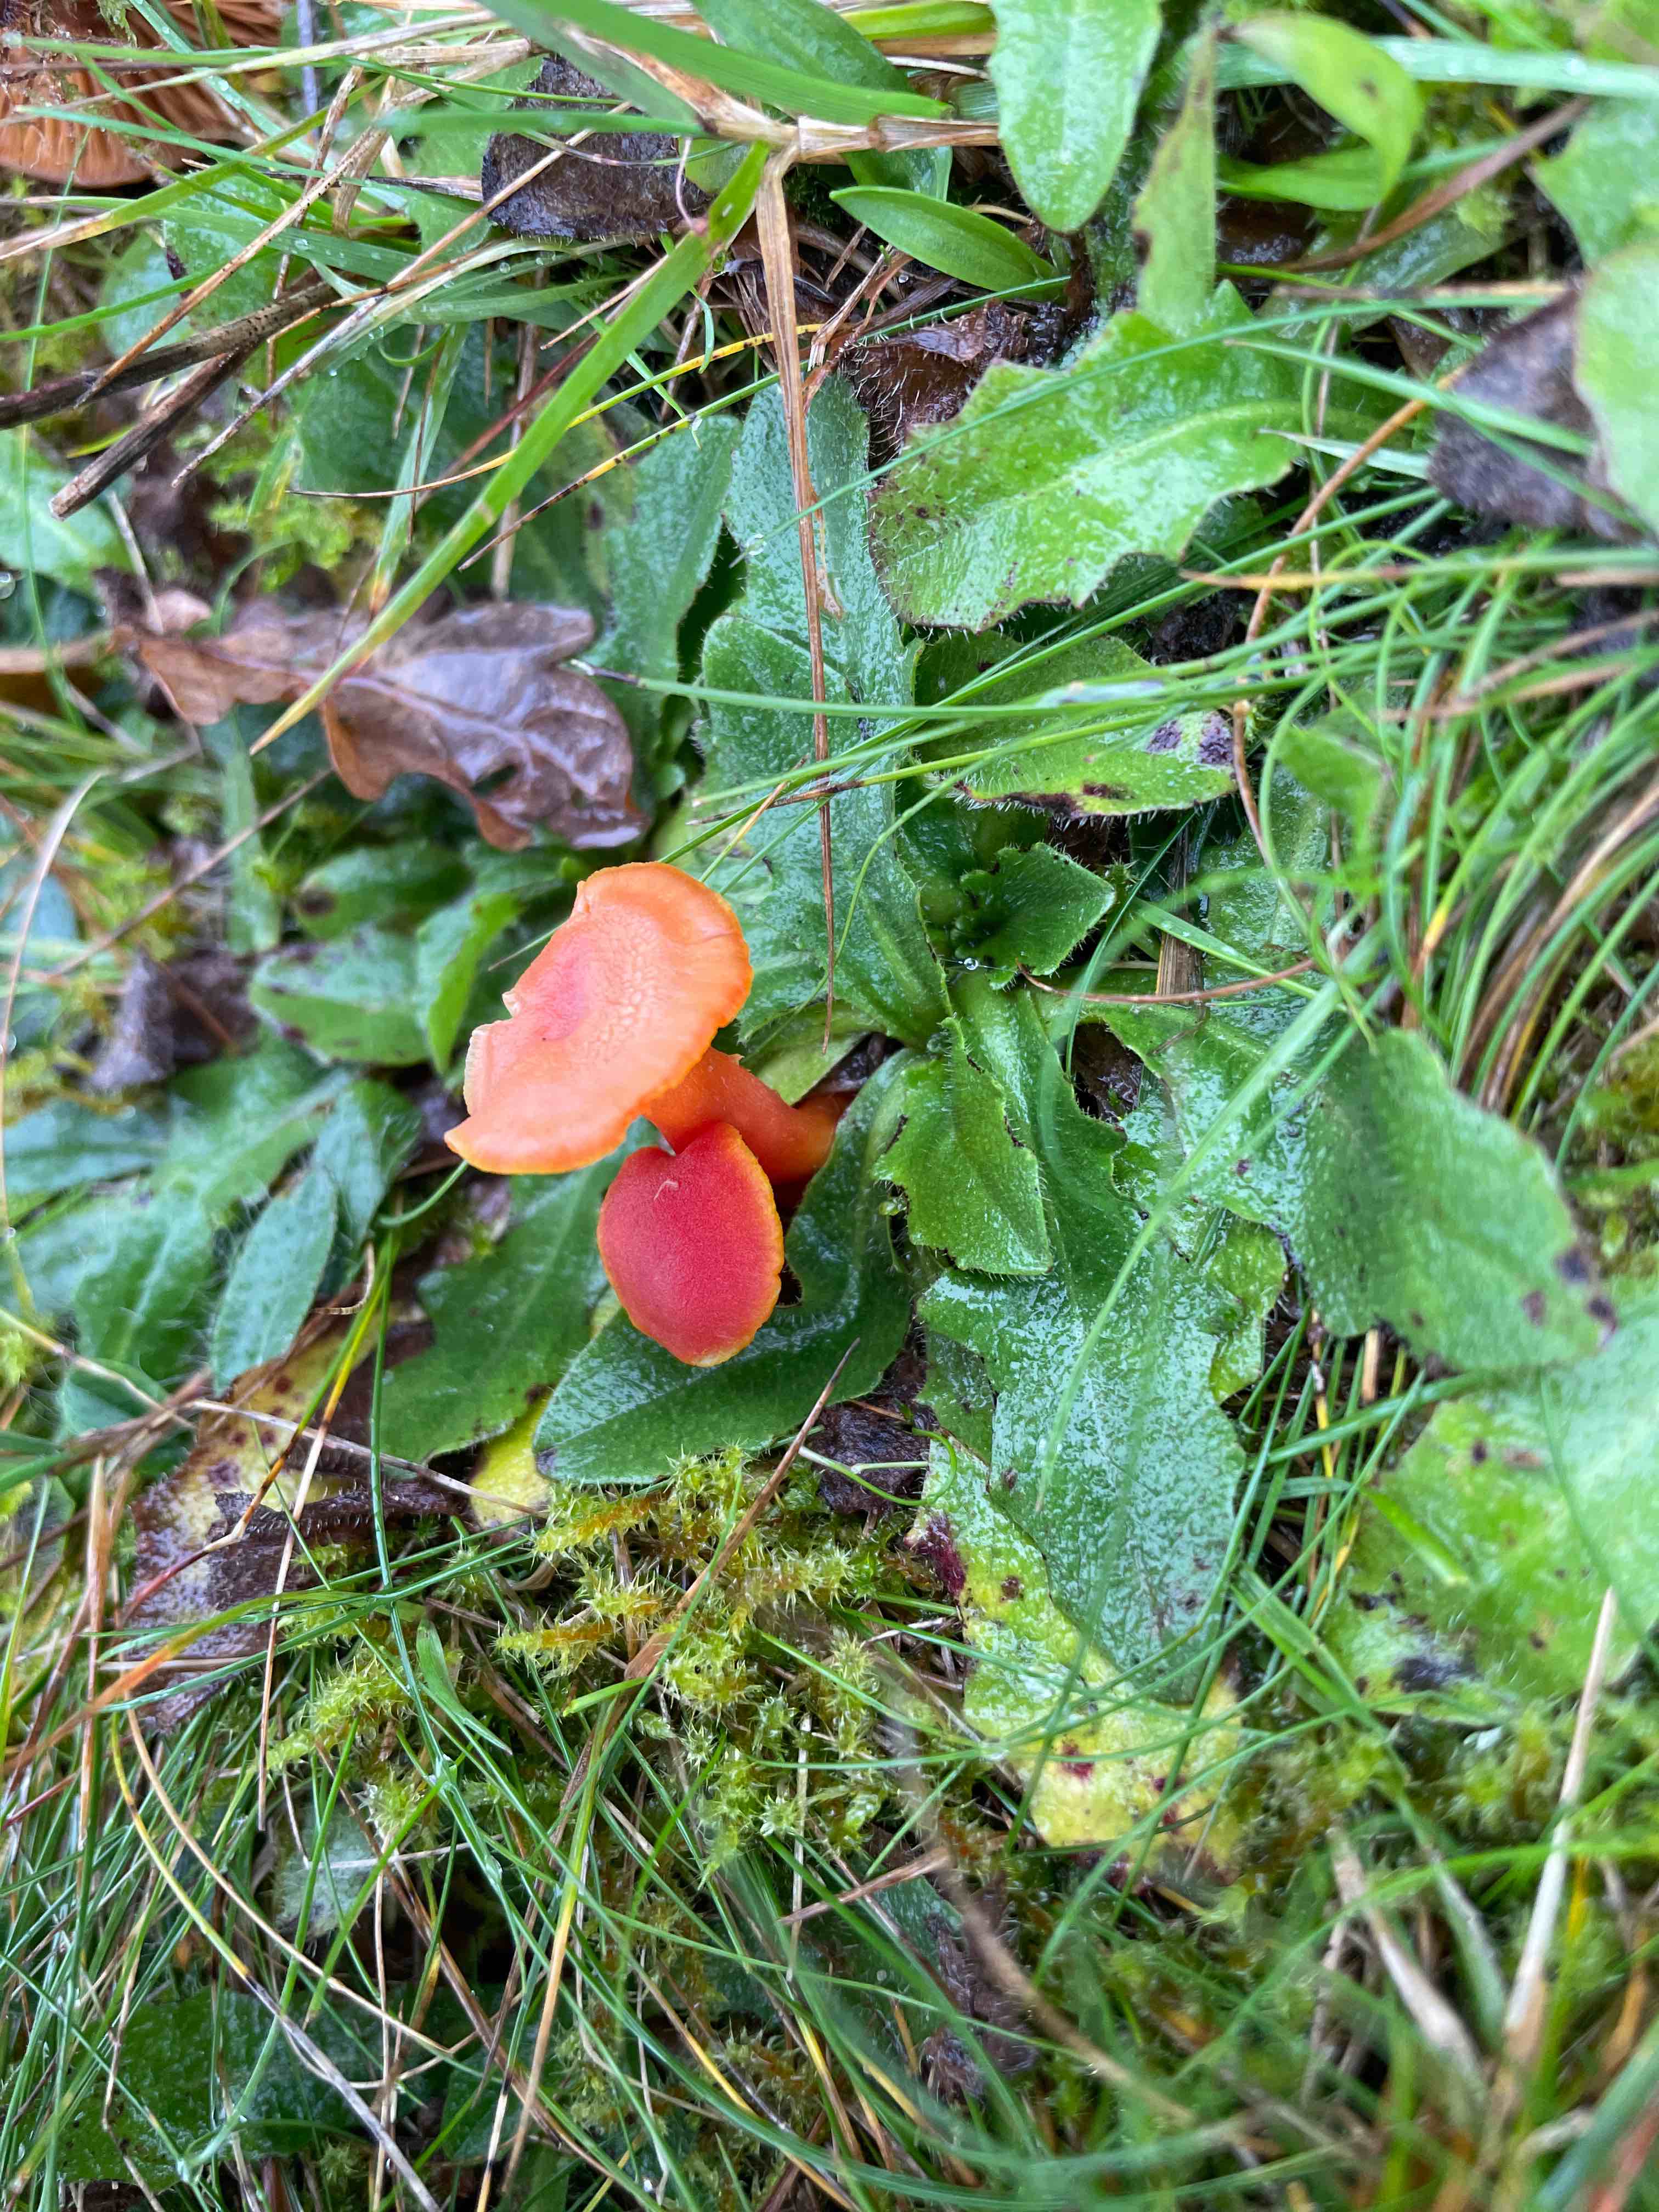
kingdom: Fungi
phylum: Basidiomycota
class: Agaricomycetes
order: Agaricales
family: Hygrophoraceae
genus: Hygrocybe
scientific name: Hygrocybe miniata
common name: mønje-vokshat
